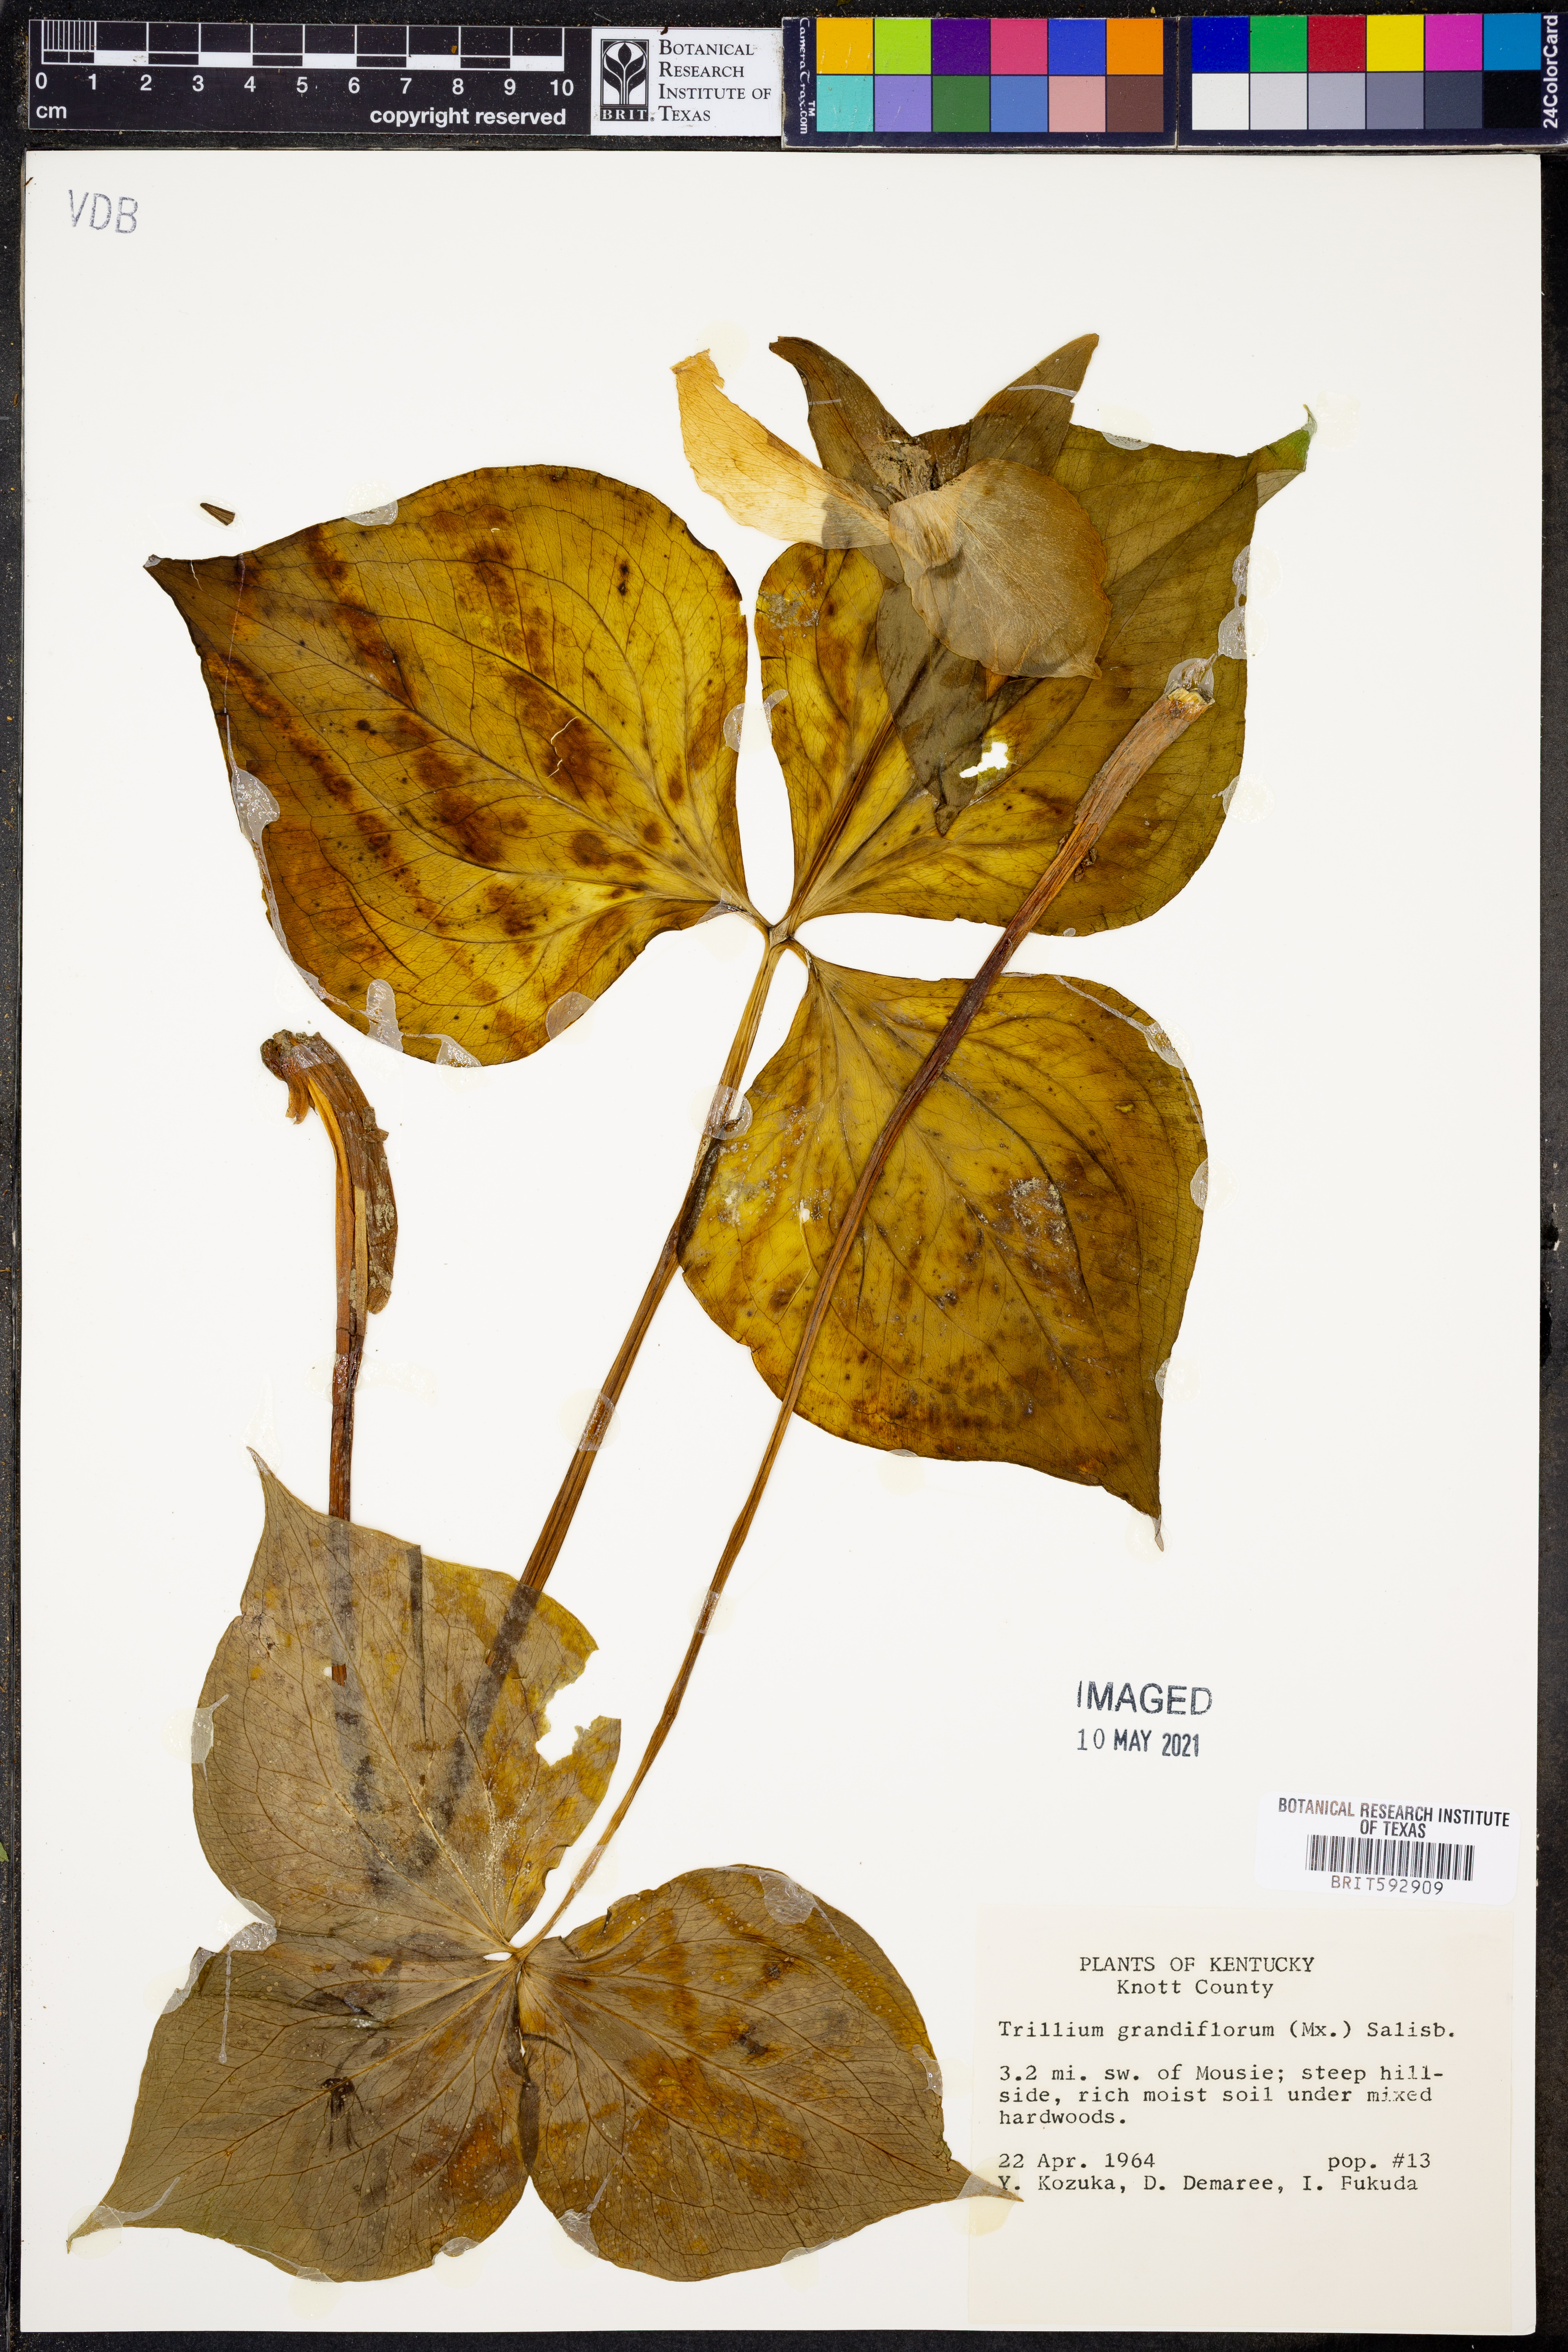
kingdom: Plantae
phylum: Tracheophyta
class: Liliopsida
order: Liliales
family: Melanthiaceae
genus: Trillium
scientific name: Trillium grandiflorum
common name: Great white trillium
